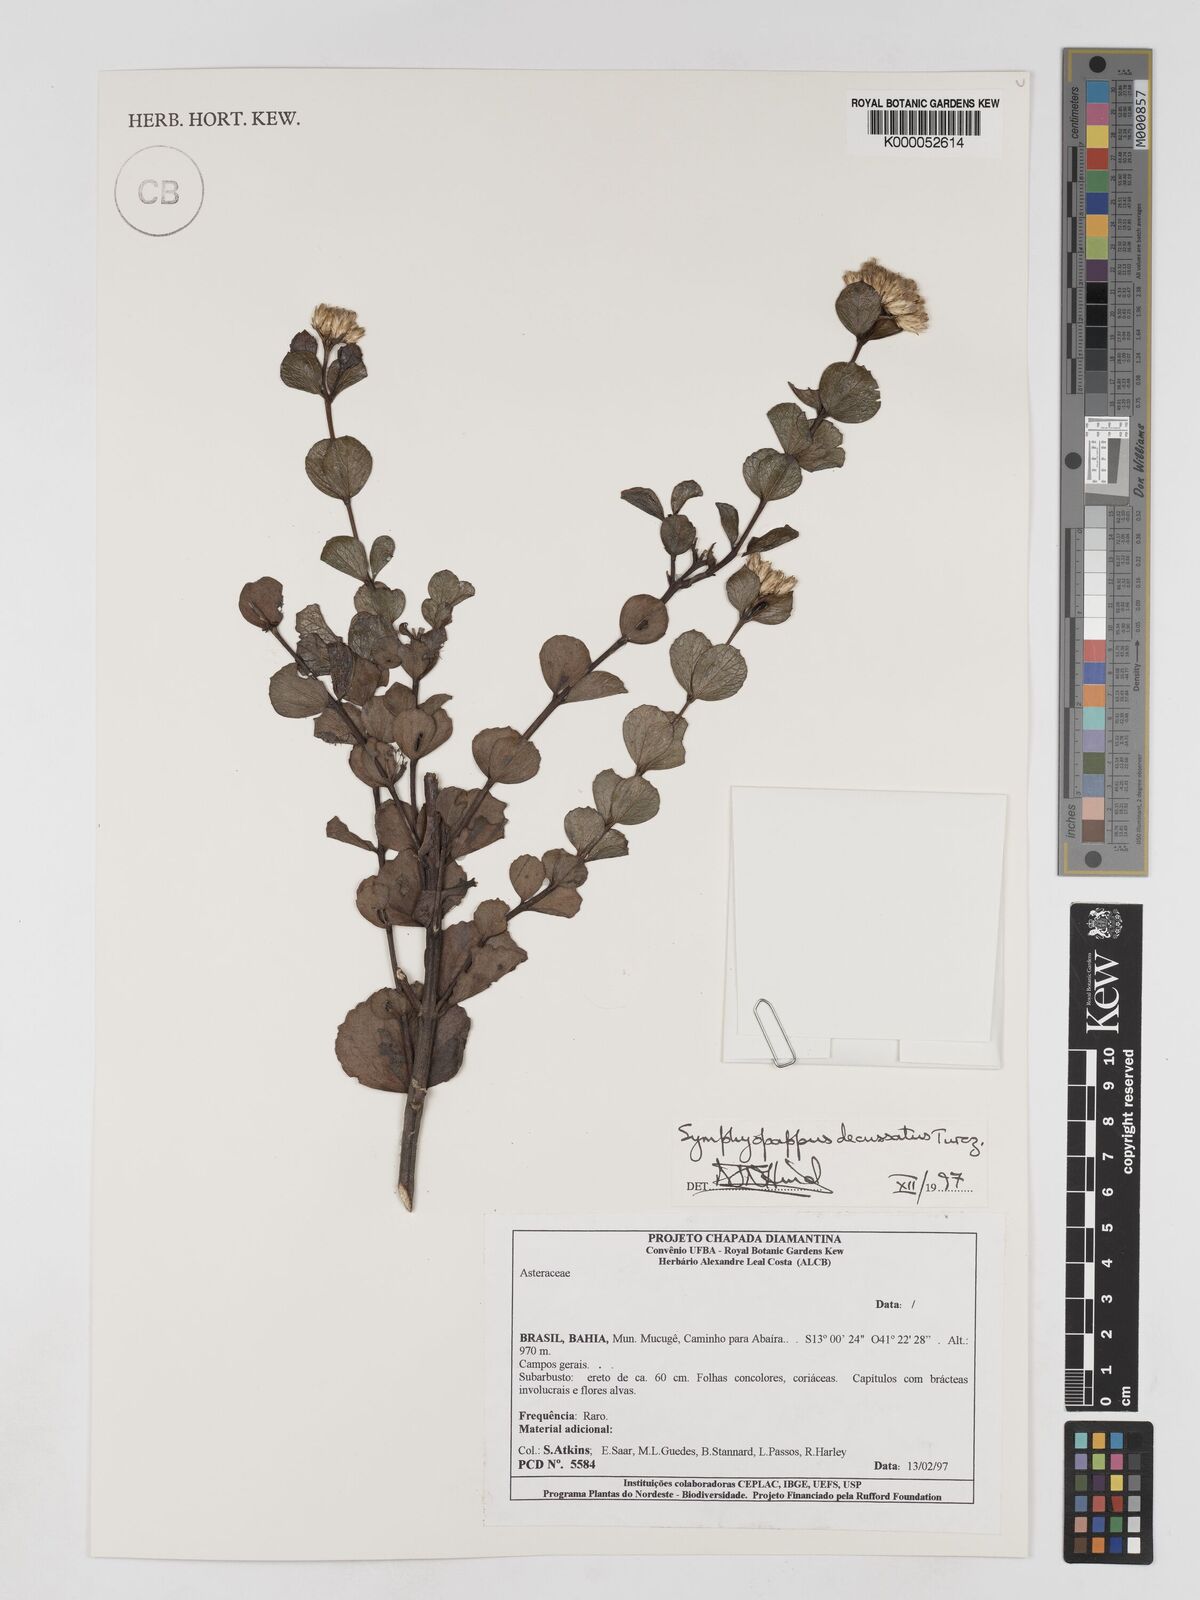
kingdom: Plantae
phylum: Tracheophyta
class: Magnoliopsida
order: Asterales
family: Asteraceae
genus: Symphyopappus
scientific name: Symphyopappus decussatus
